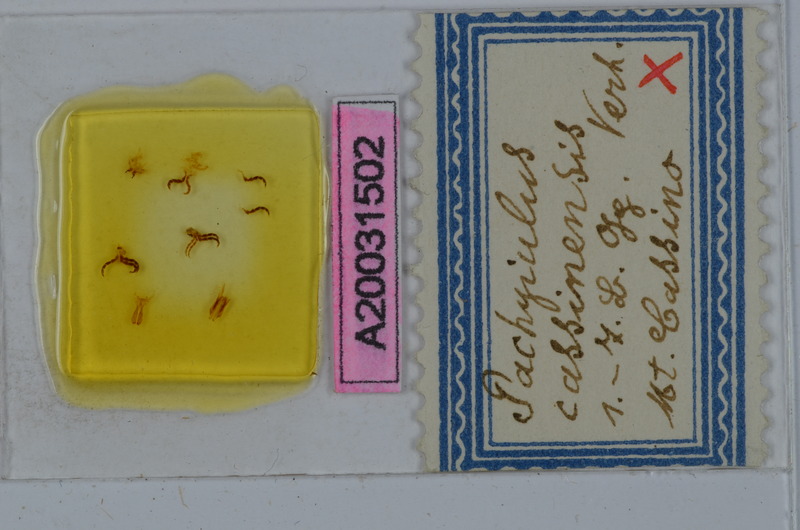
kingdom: Animalia
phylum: Arthropoda
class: Diplopoda
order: Julida
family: Julidae
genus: Pachyiulus
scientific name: Pachyiulus cassinensis
